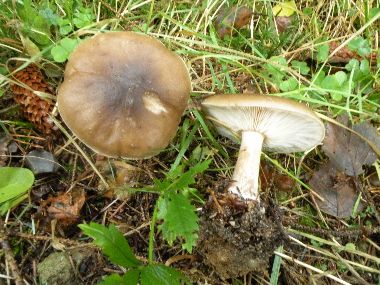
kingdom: Fungi
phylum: Basidiomycota
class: Agaricomycetes
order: Agaricales
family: Tricholomataceae
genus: Melanoleuca
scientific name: Melanoleuca polioleuca
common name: hvidbladet munkehat
